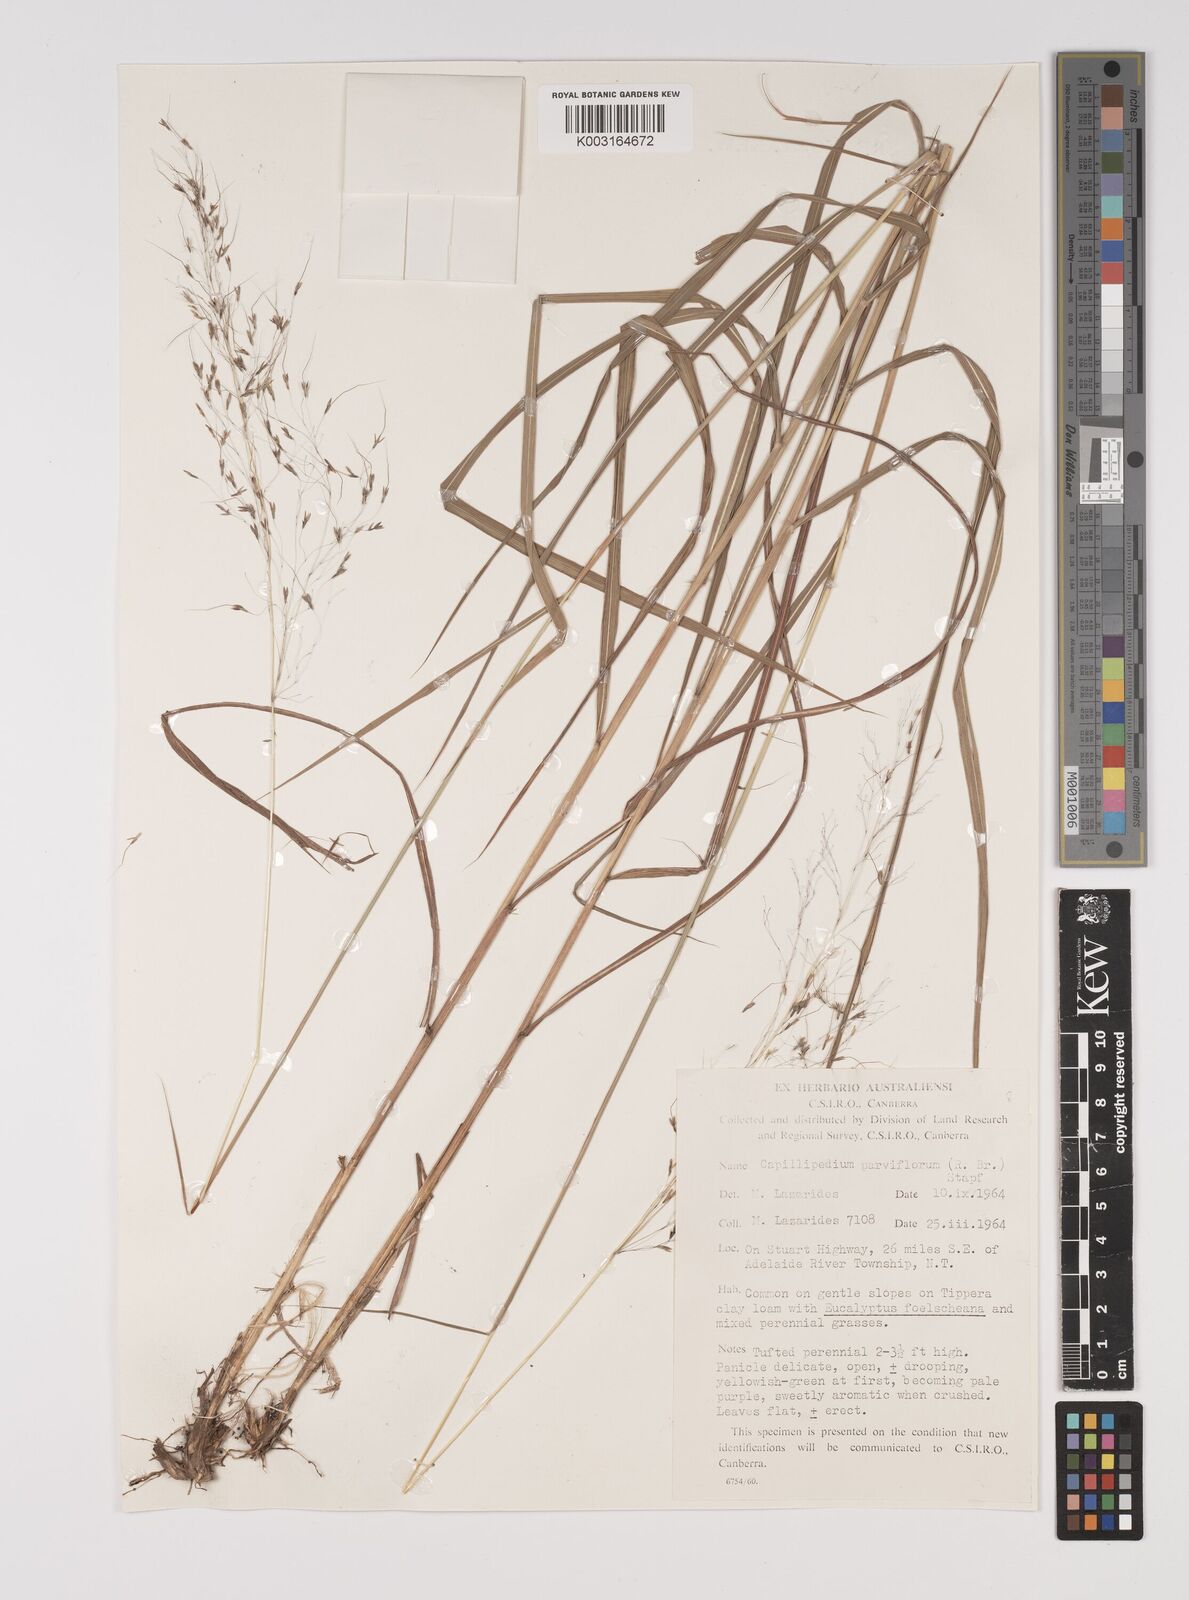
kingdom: Plantae
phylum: Tracheophyta
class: Liliopsida
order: Poales
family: Poaceae
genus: Capillipedium
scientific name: Capillipedium parviflorum
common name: Golden-beard
